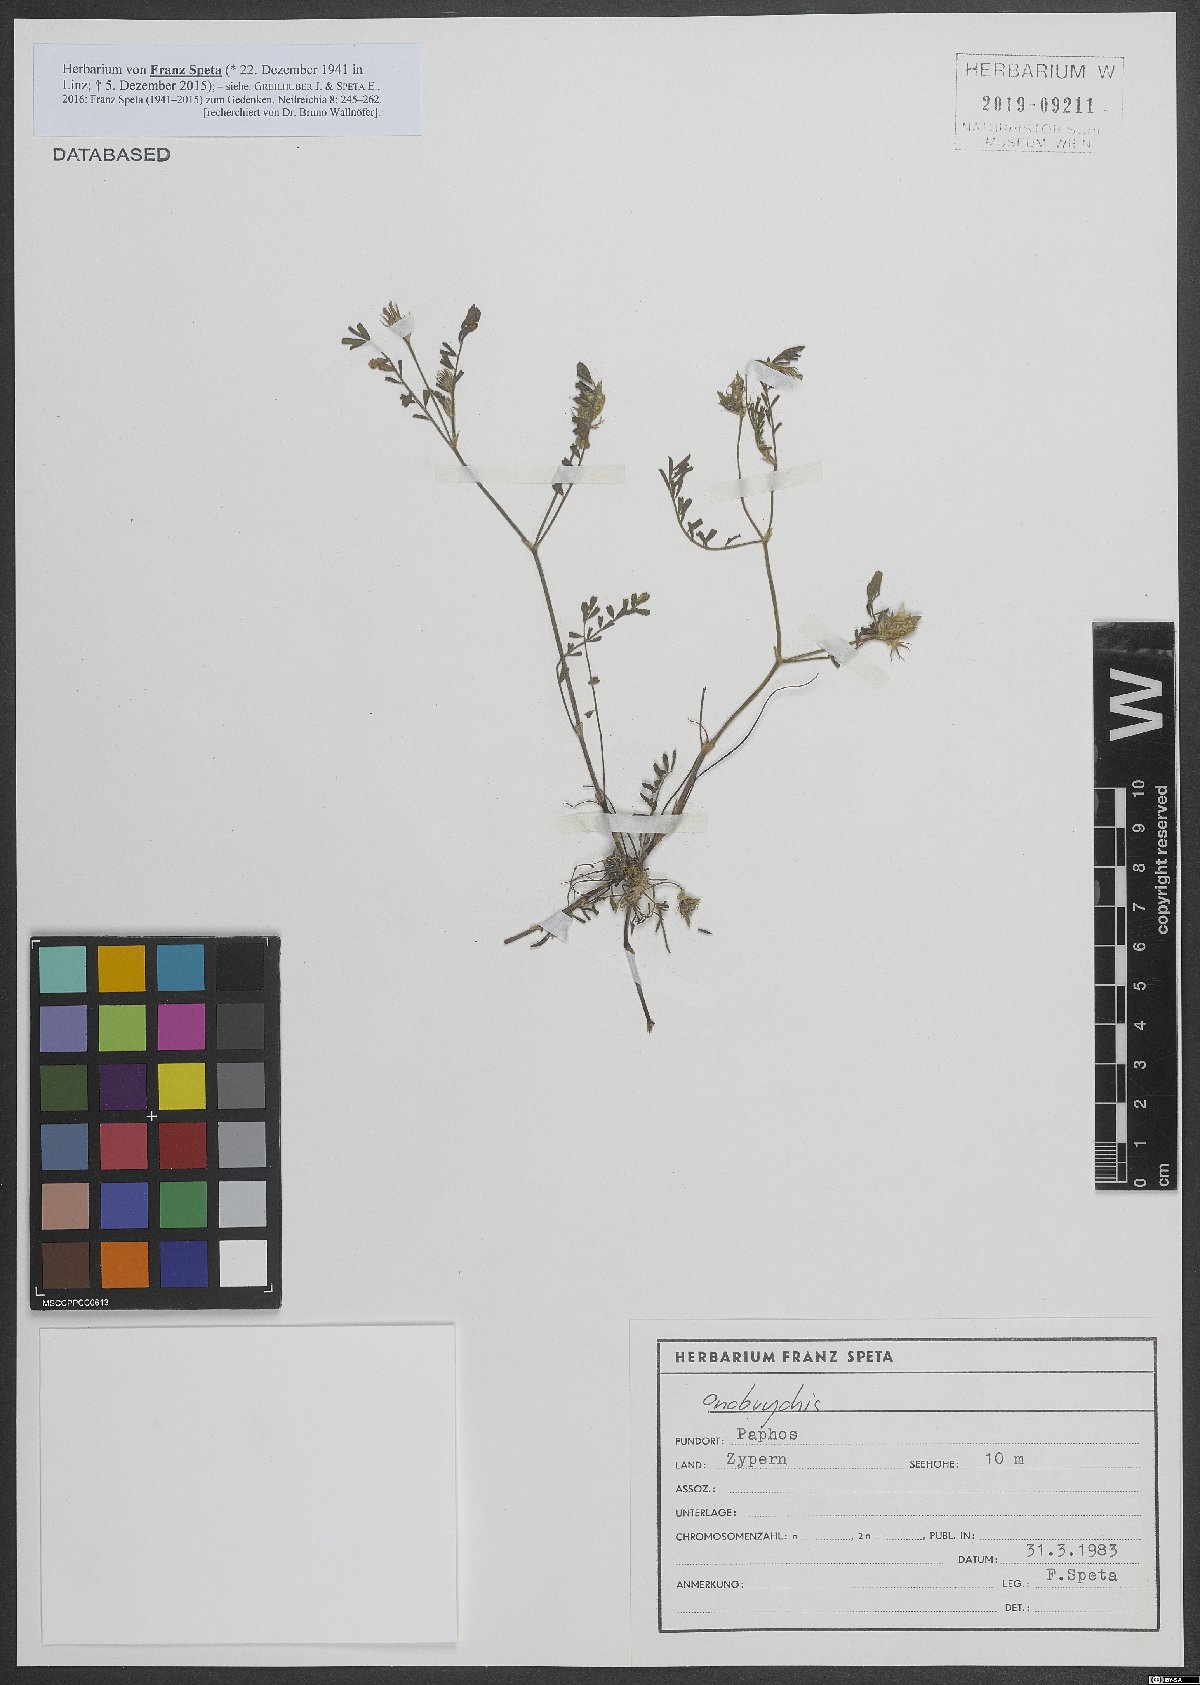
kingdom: Plantae
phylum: Tracheophyta
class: Magnoliopsida
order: Fabales
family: Fabaceae
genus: Onobrychis
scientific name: Onobrychis
